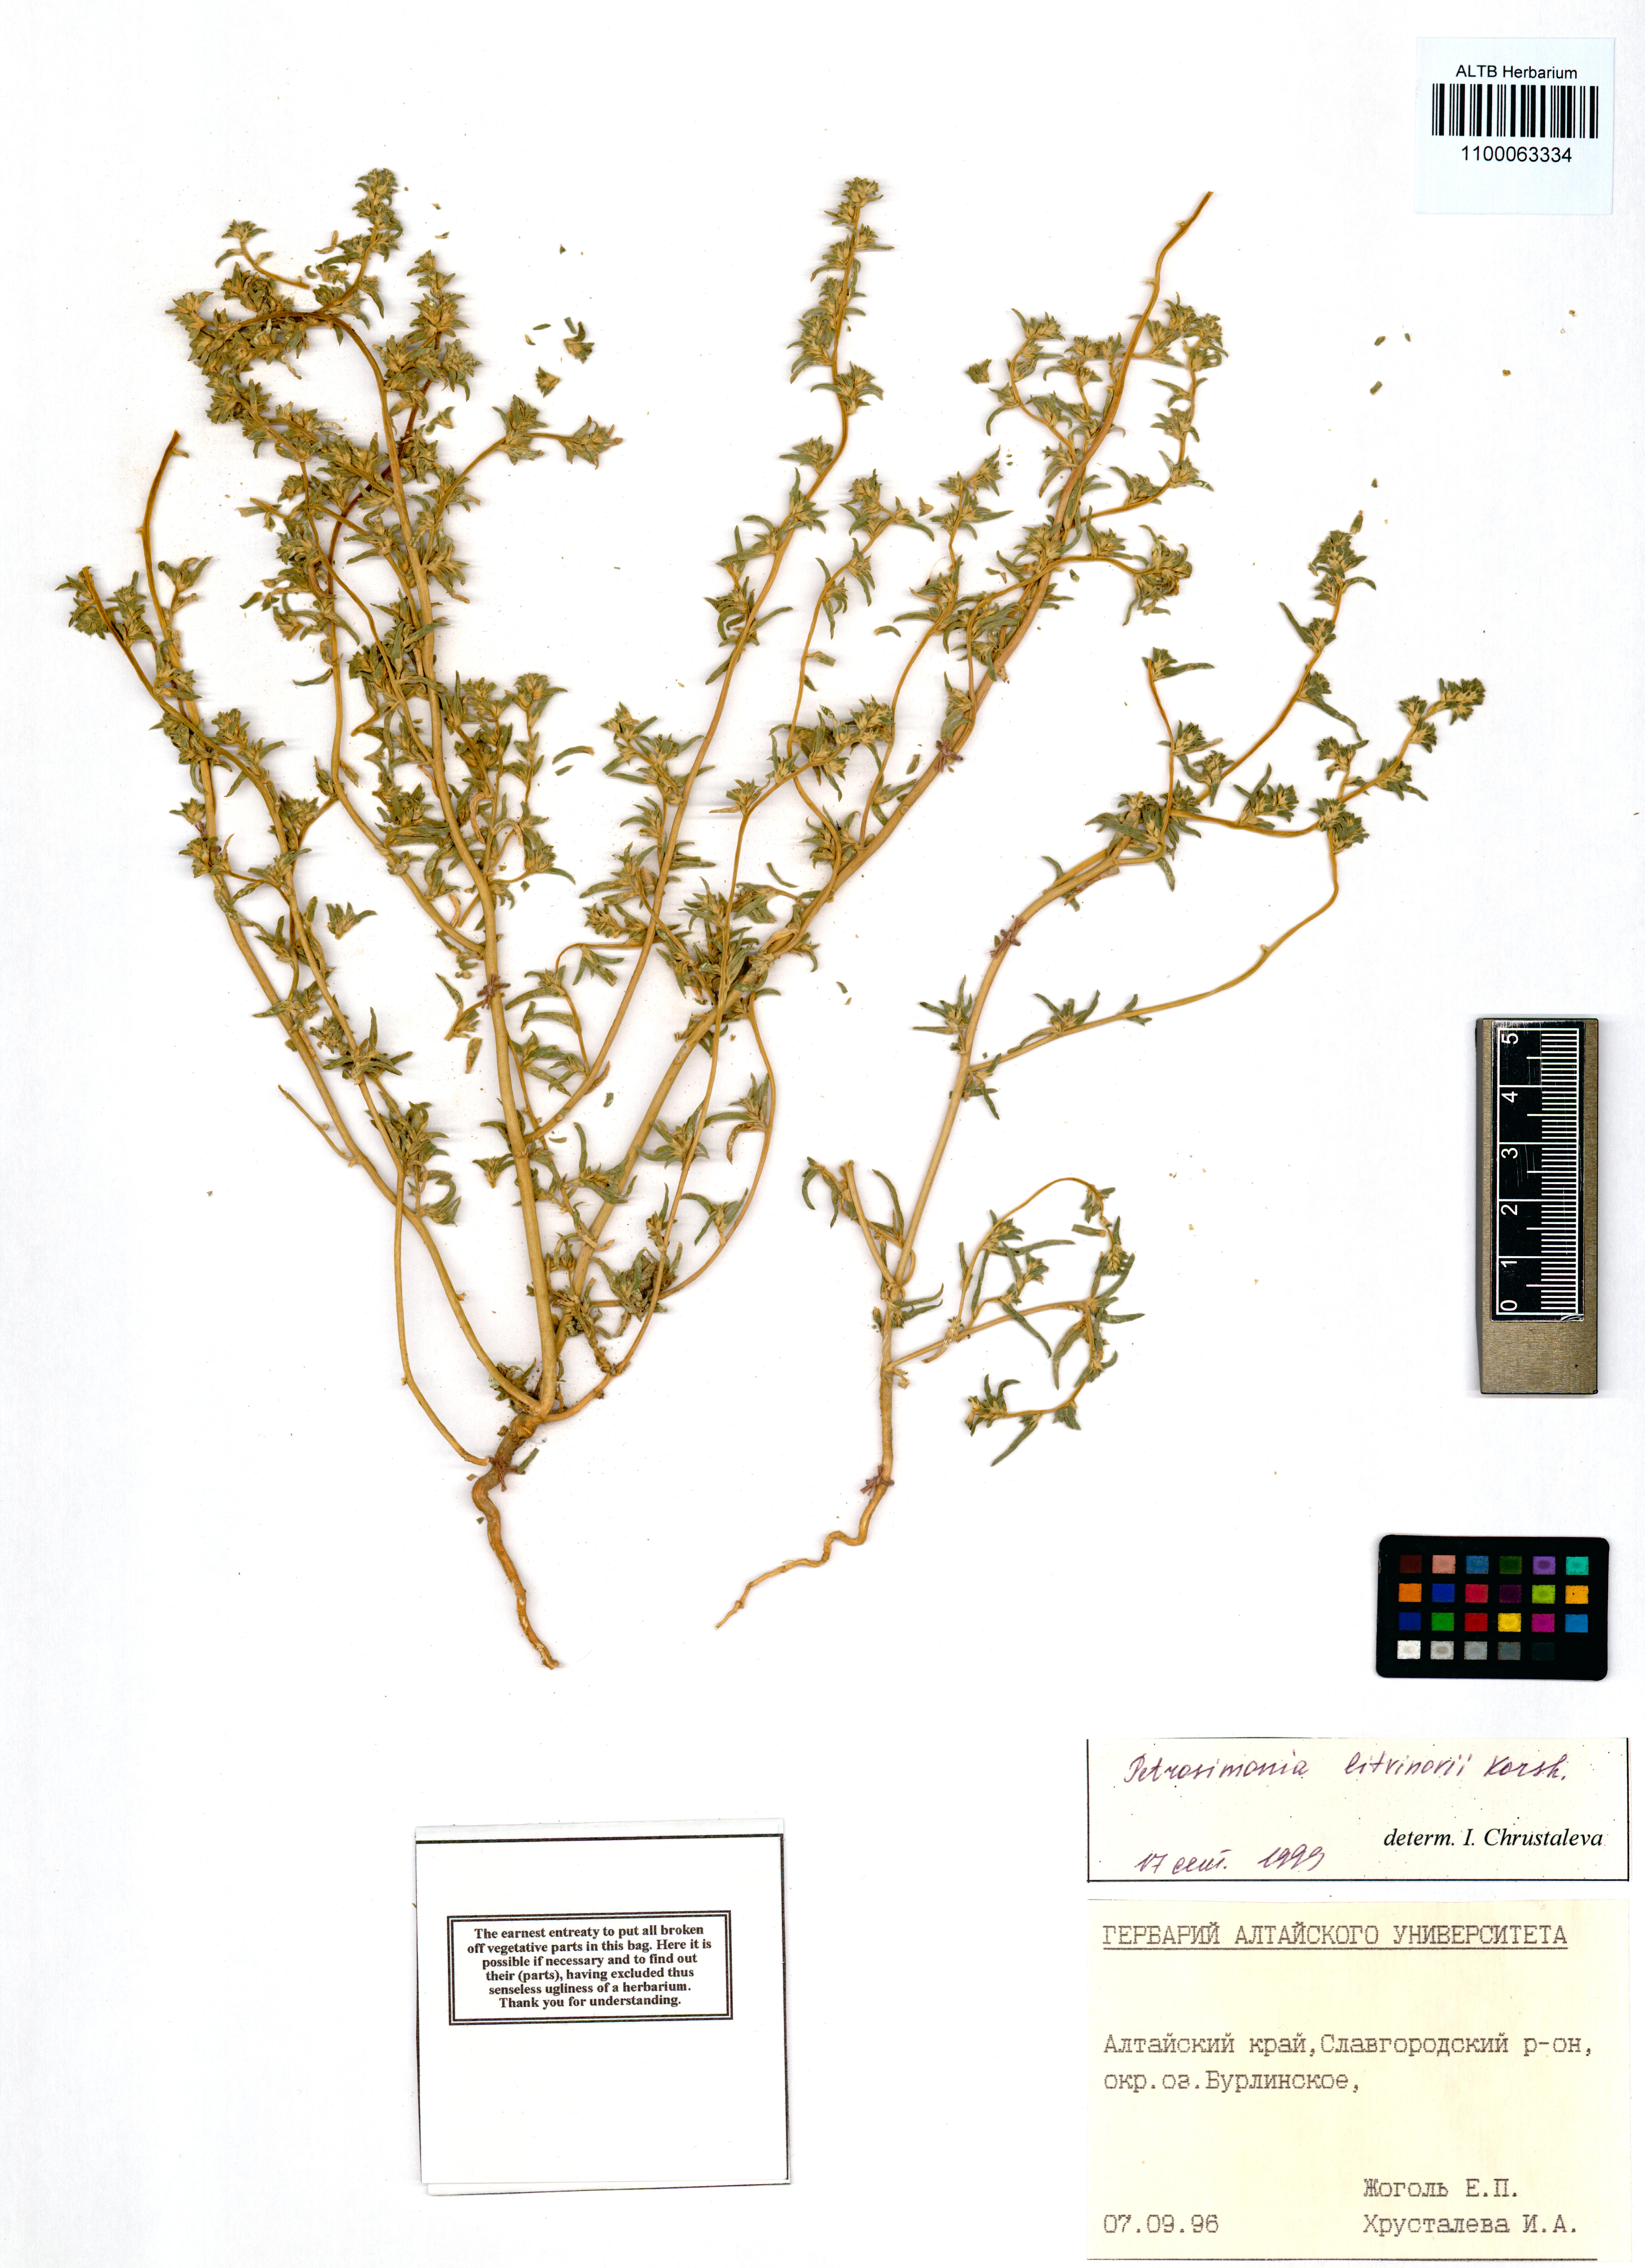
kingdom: Plantae
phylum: Tracheophyta
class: Magnoliopsida
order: Caryophyllales
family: Amaranthaceae
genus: Petrosimonia
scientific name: Petrosimonia litvinowi
